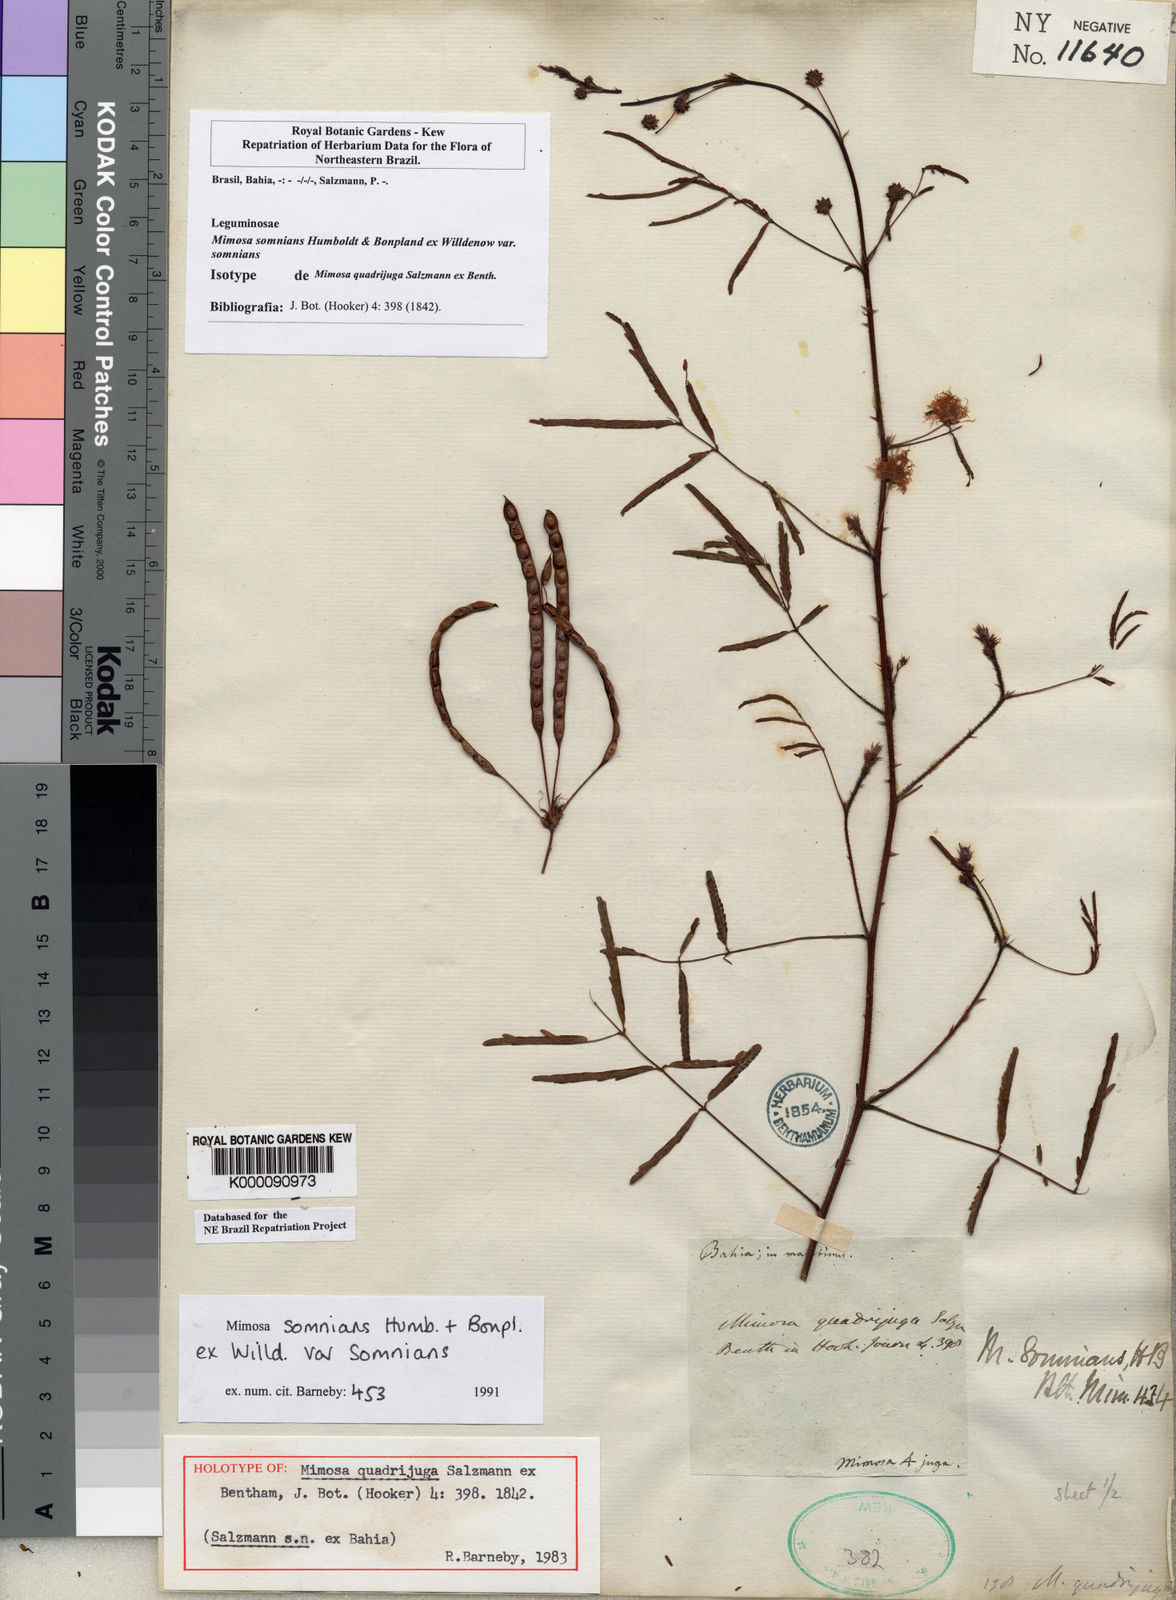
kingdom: Plantae
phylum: Tracheophyta
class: Magnoliopsida
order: Fabales
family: Fabaceae
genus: Mimosa
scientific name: Mimosa somnians
